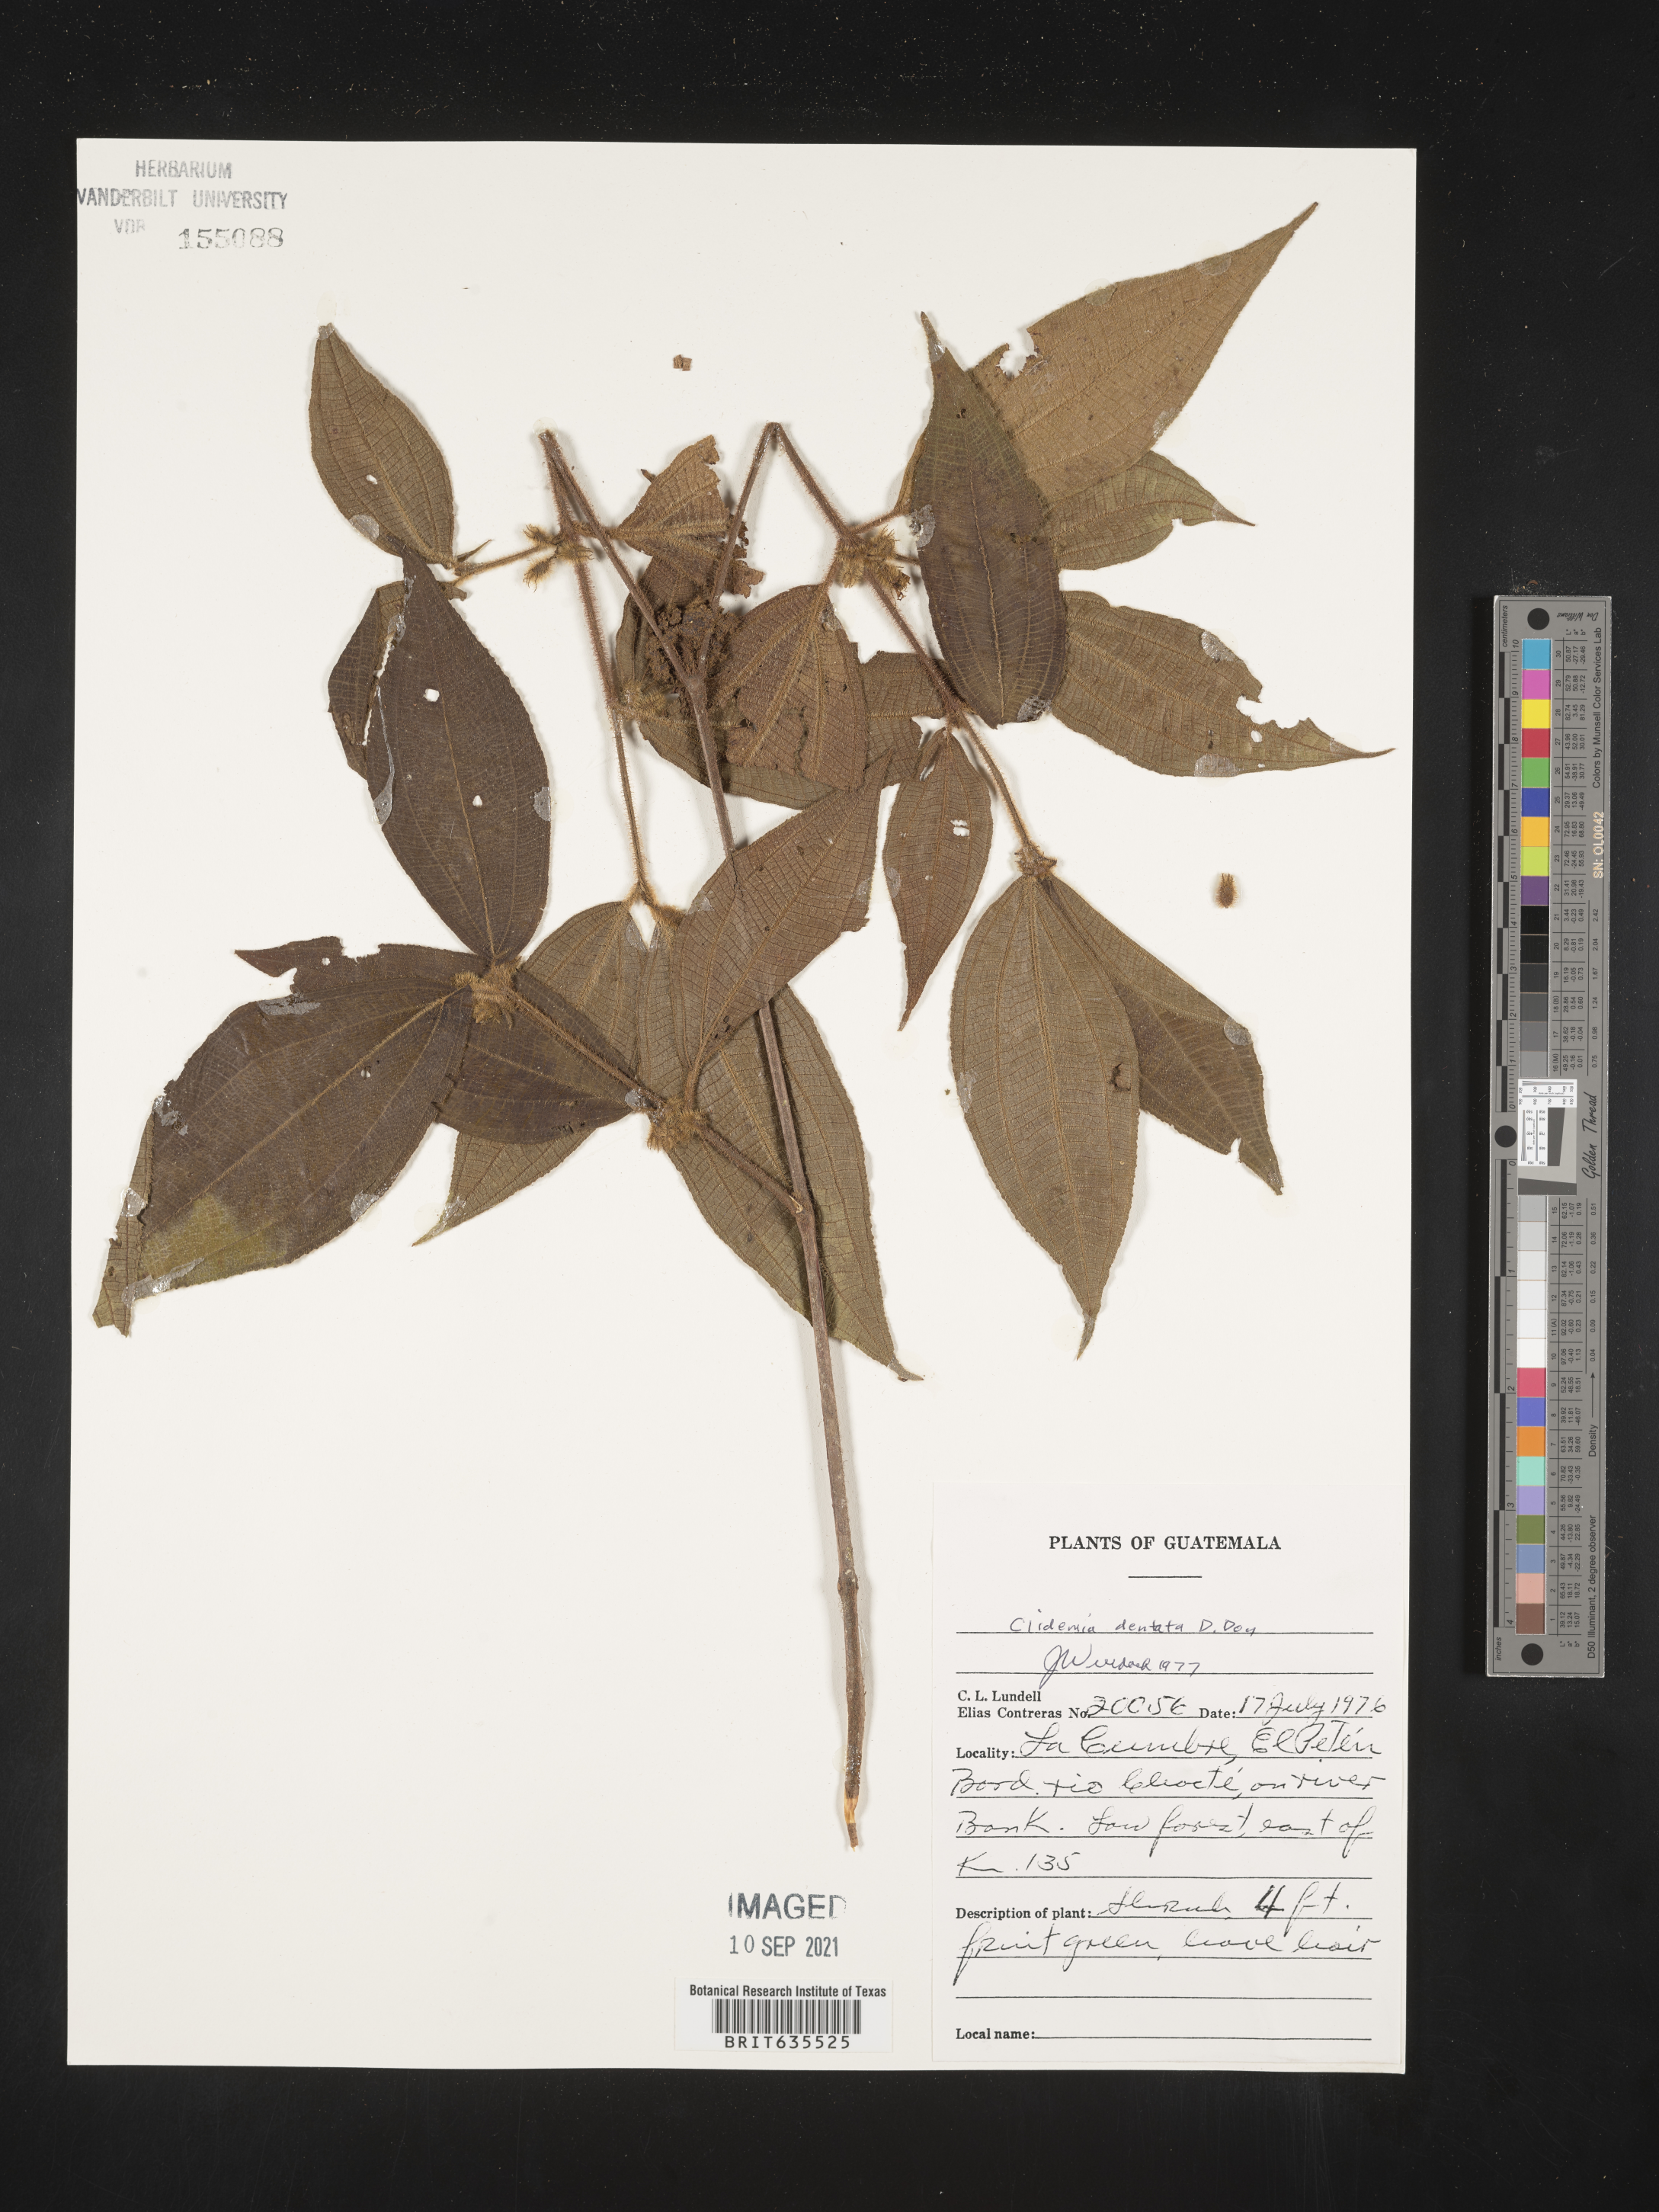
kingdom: Plantae
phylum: Tracheophyta
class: Magnoliopsida
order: Myrtales
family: Melastomataceae
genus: Miconia
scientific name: Miconia
